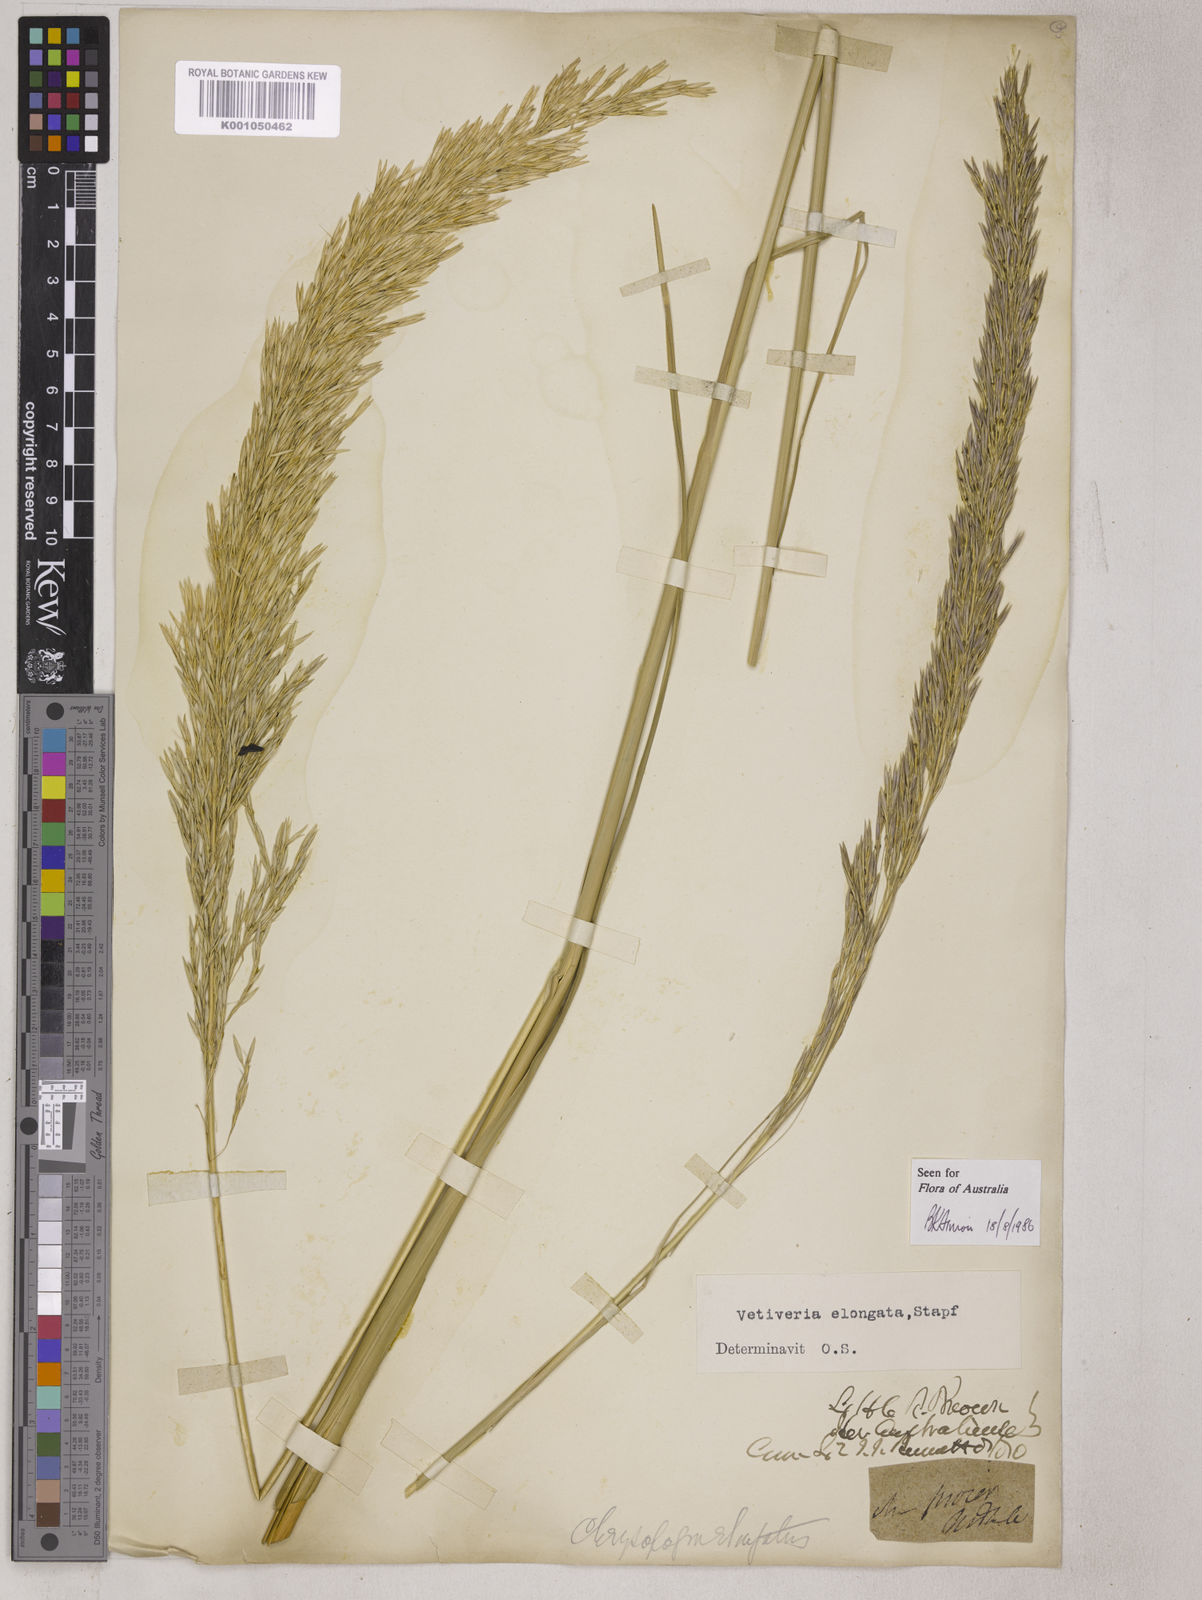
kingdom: Plantae
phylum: Tracheophyta
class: Liliopsida
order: Poales
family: Poaceae
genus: Chrysopogon
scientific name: Chrysopogon elongatus
